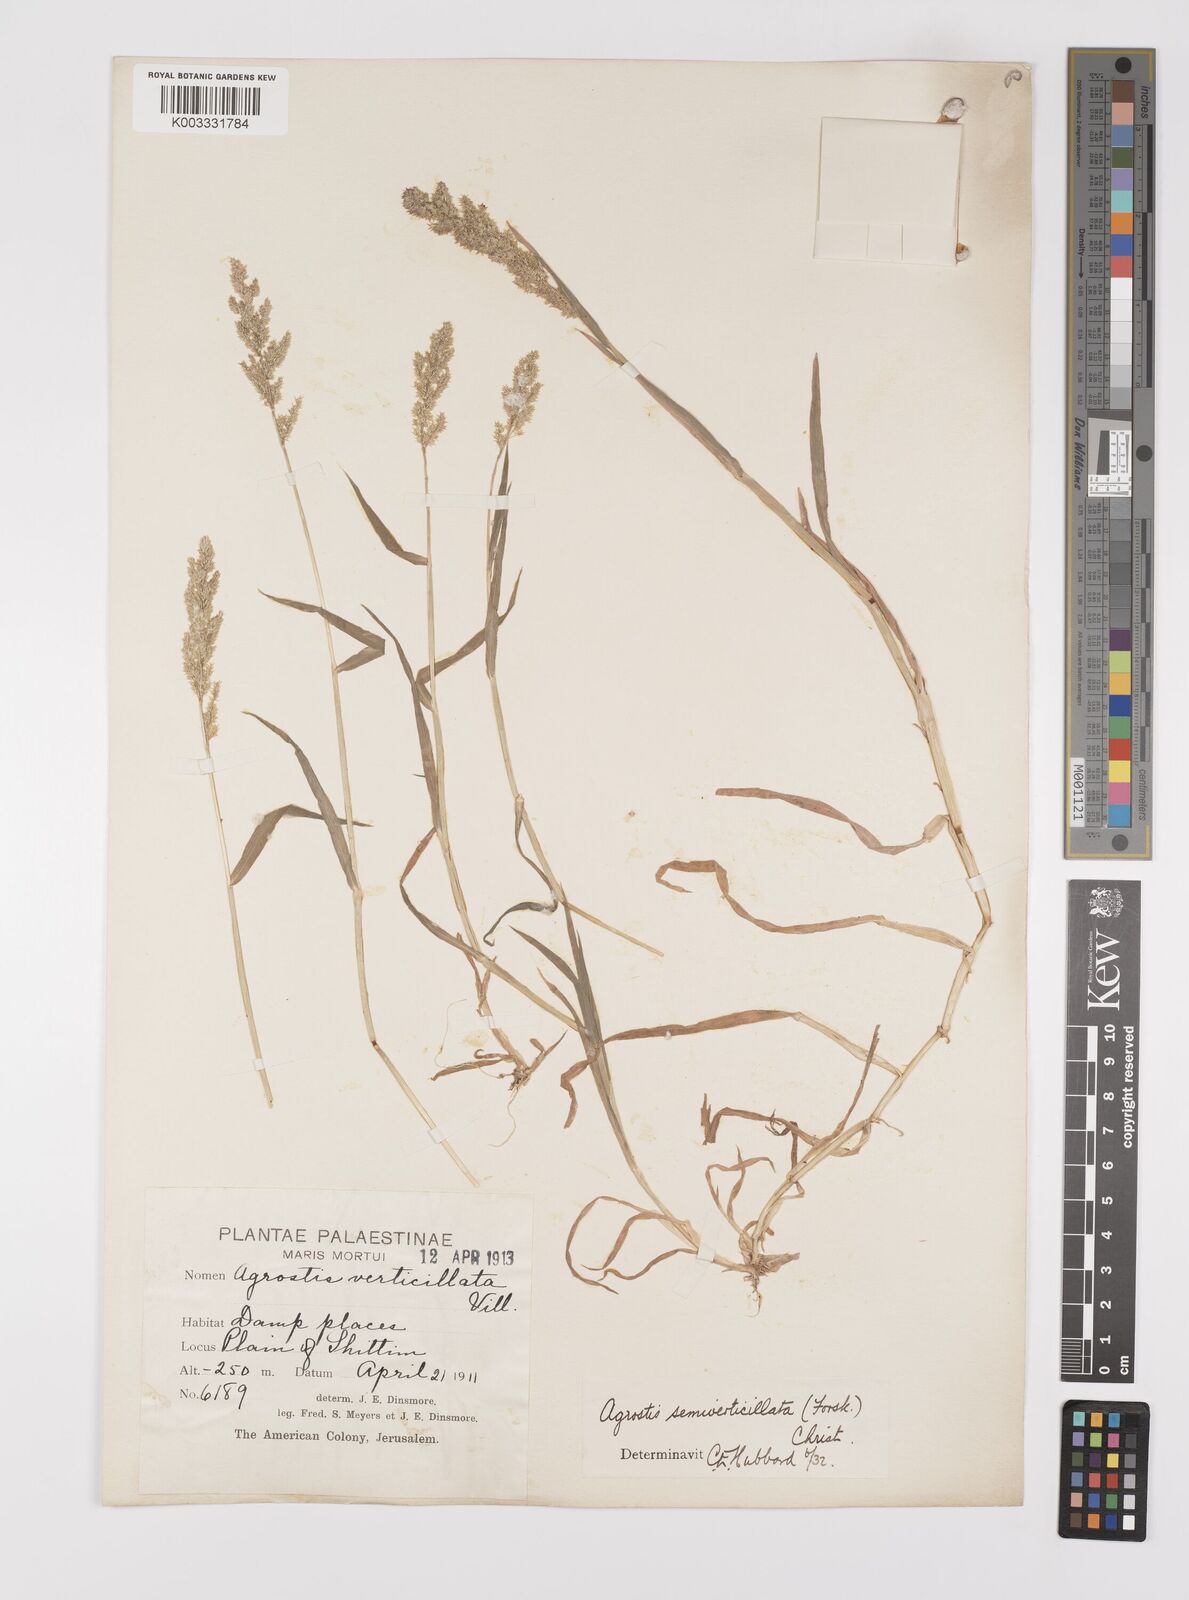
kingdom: Plantae
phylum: Tracheophyta
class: Liliopsida
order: Poales
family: Poaceae
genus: Polypogon
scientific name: Polypogon viridis
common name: Water bent
